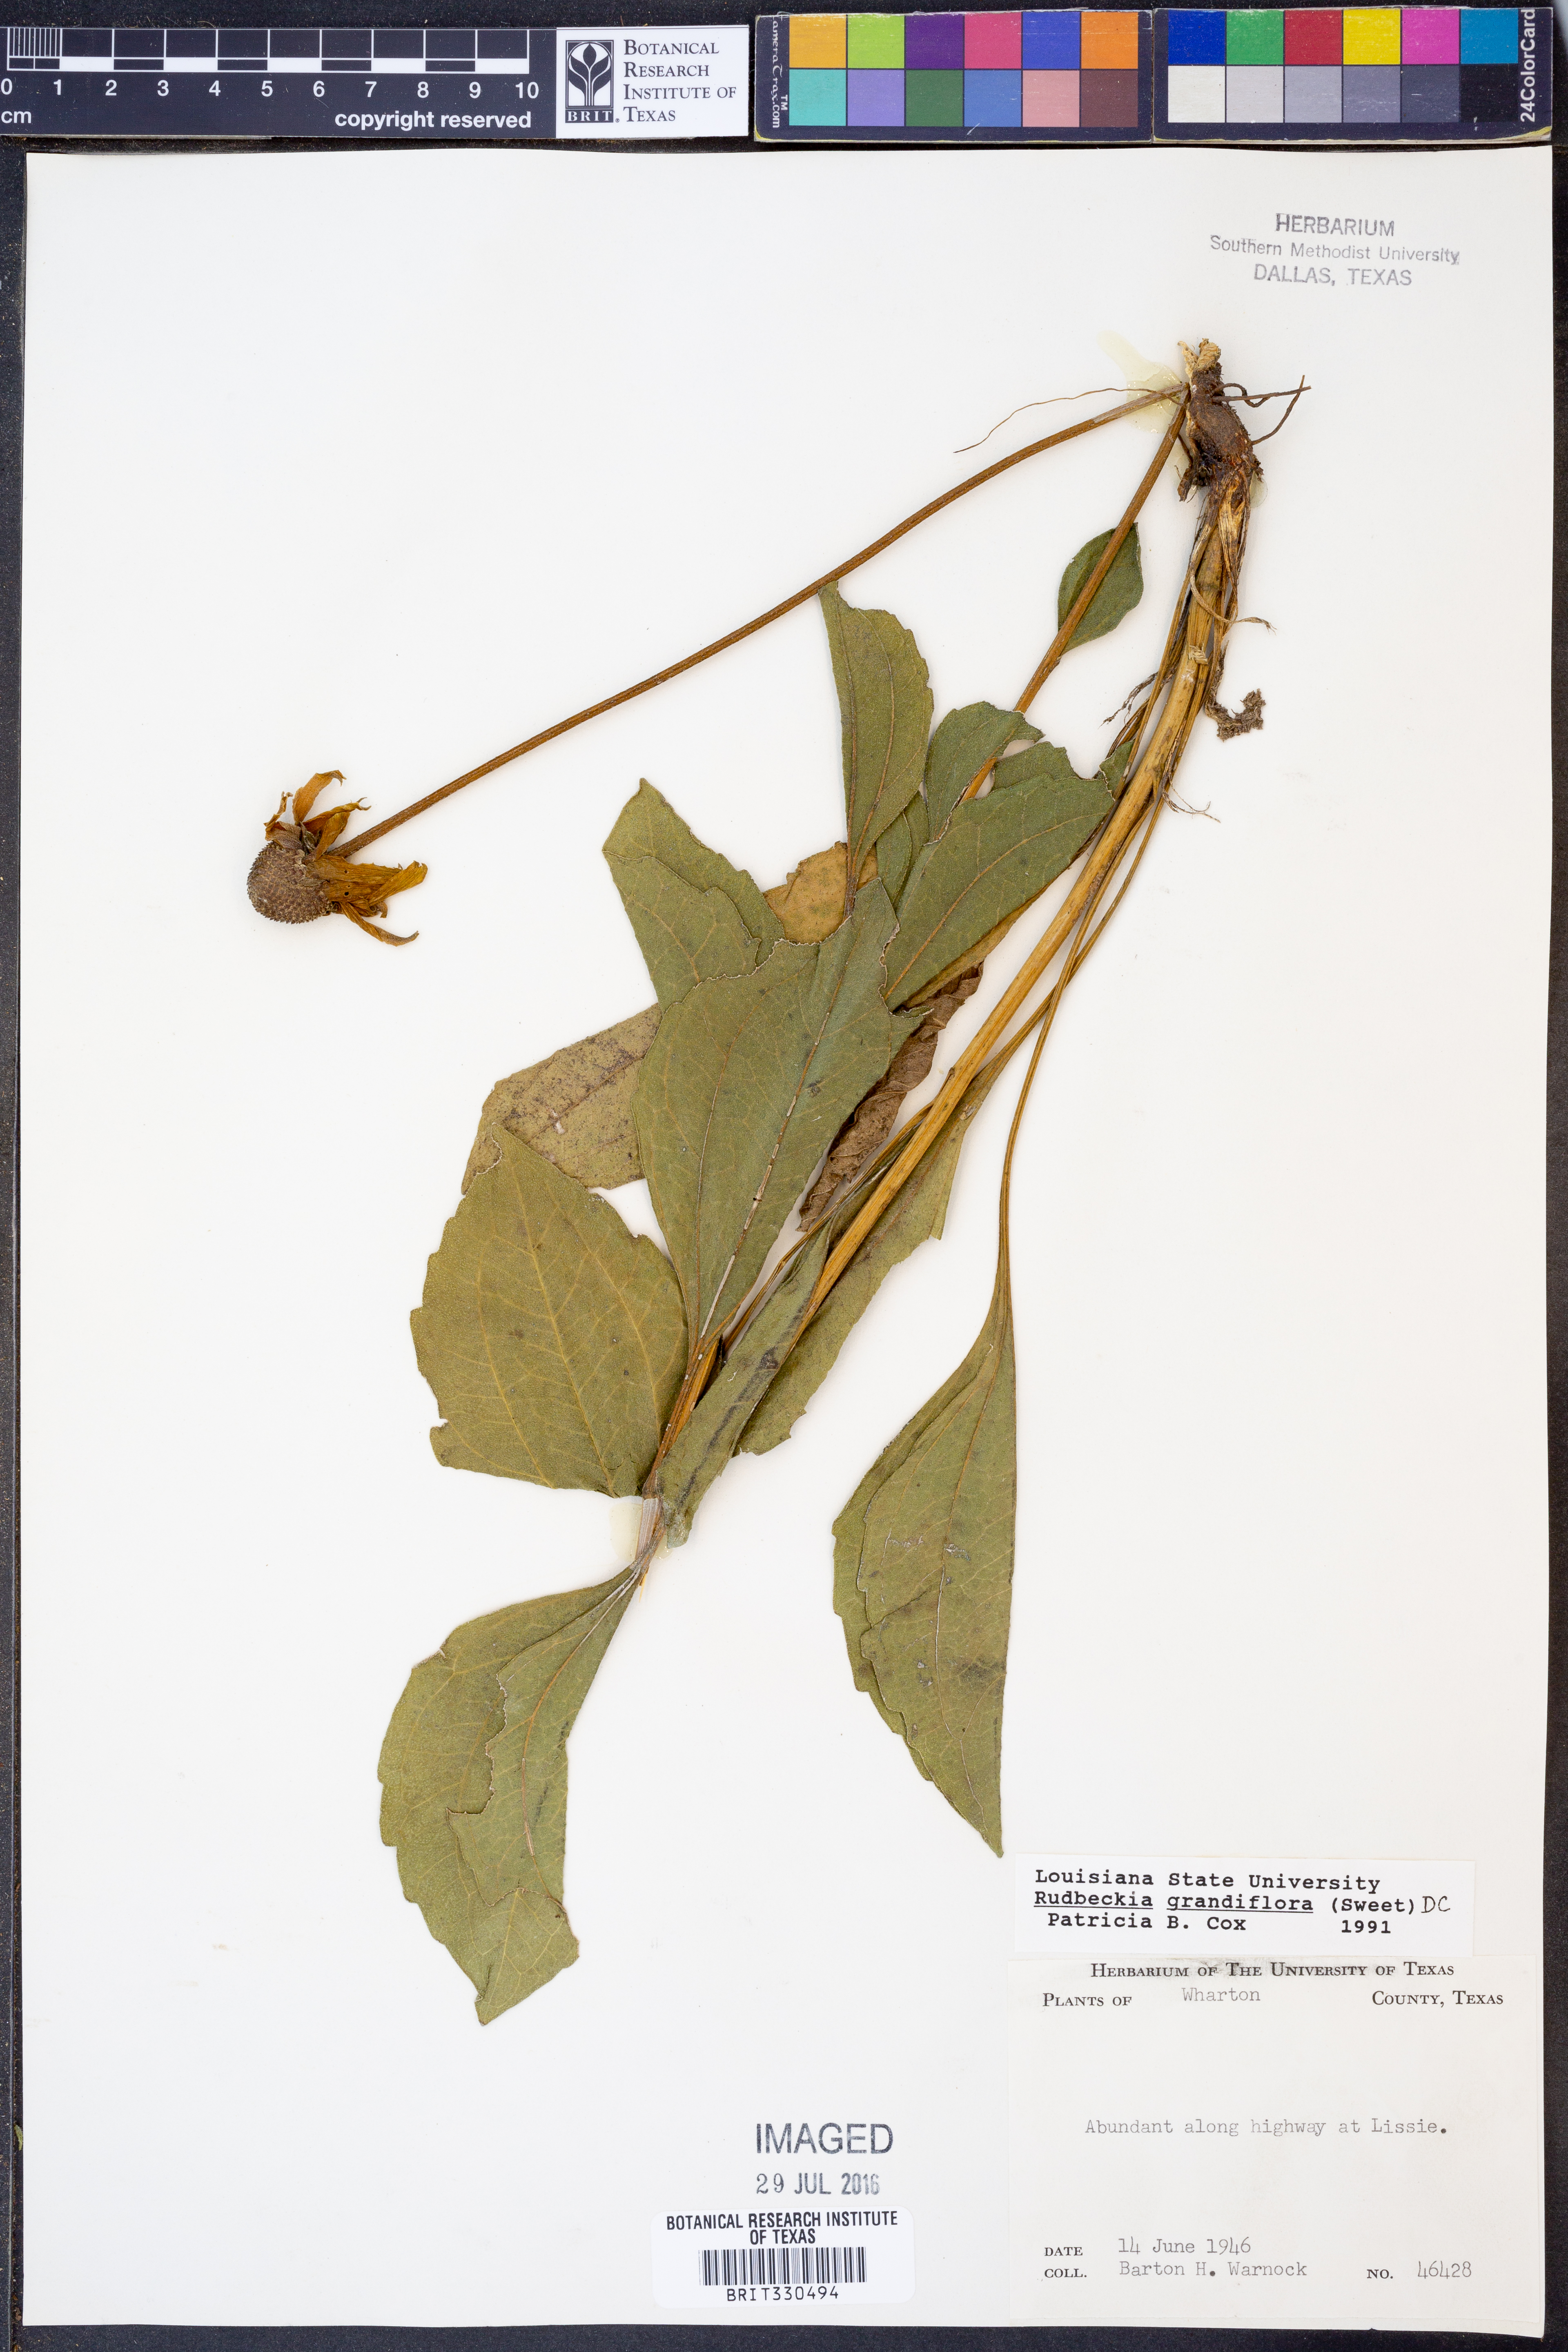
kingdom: Plantae
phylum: Tracheophyta
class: Magnoliopsida
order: Asterales
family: Asteraceae
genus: Rudbeckia
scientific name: Rudbeckia grandiflora
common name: Large-flowered coneflower
